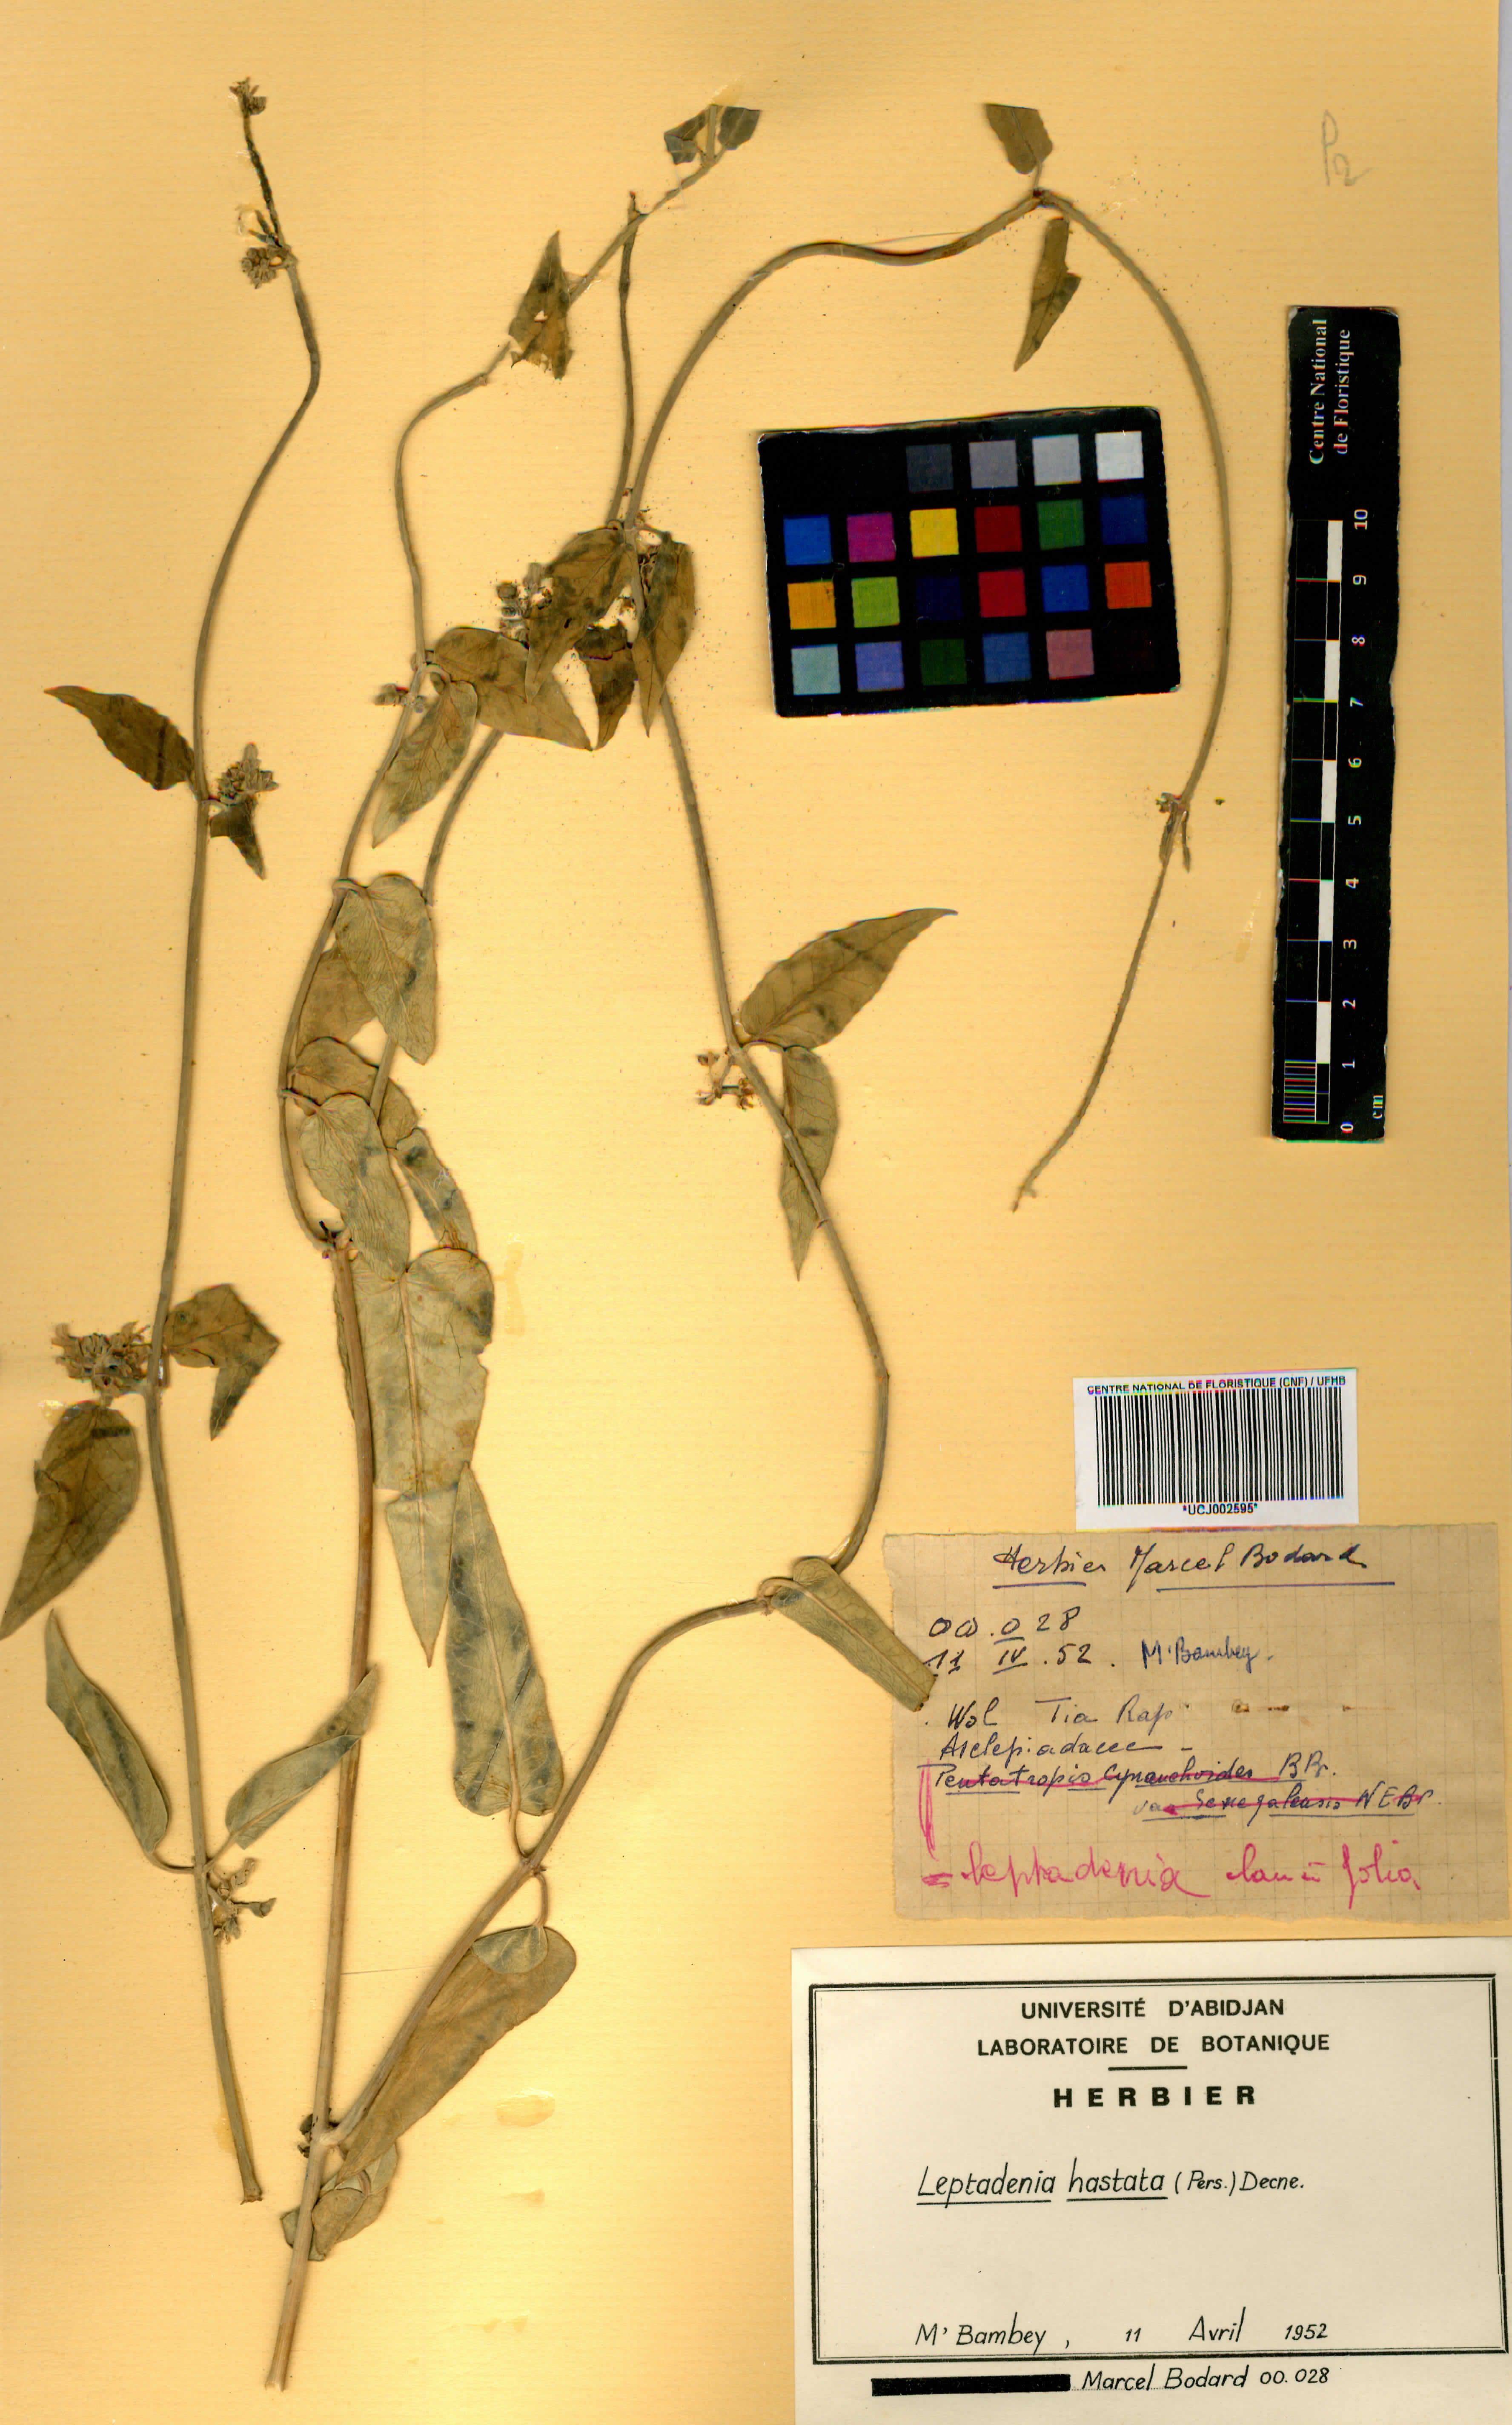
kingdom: Plantae
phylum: Tracheophyta
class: Magnoliopsida
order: Gentianales
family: Apocynaceae
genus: Leptadenia
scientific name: Leptadenia lanceolata
